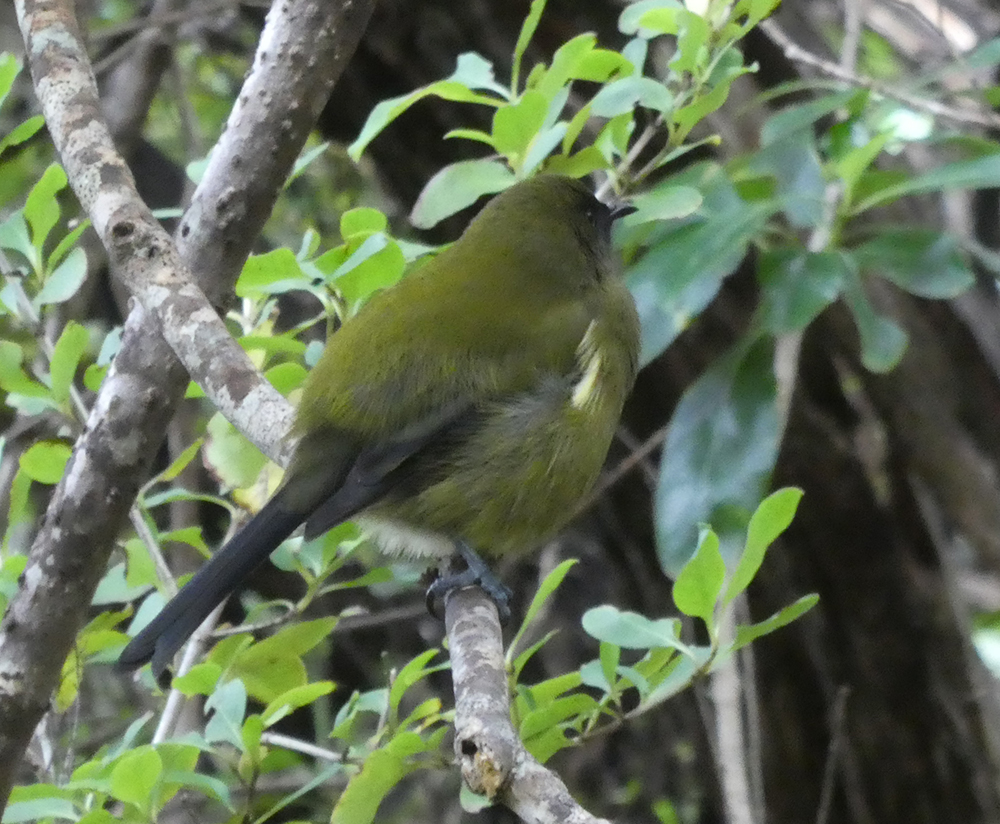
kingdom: Animalia
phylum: Chordata
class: Aves
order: Passeriformes
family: Meliphagidae
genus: Anthornis
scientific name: Anthornis melanura
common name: New zealand bellbird
